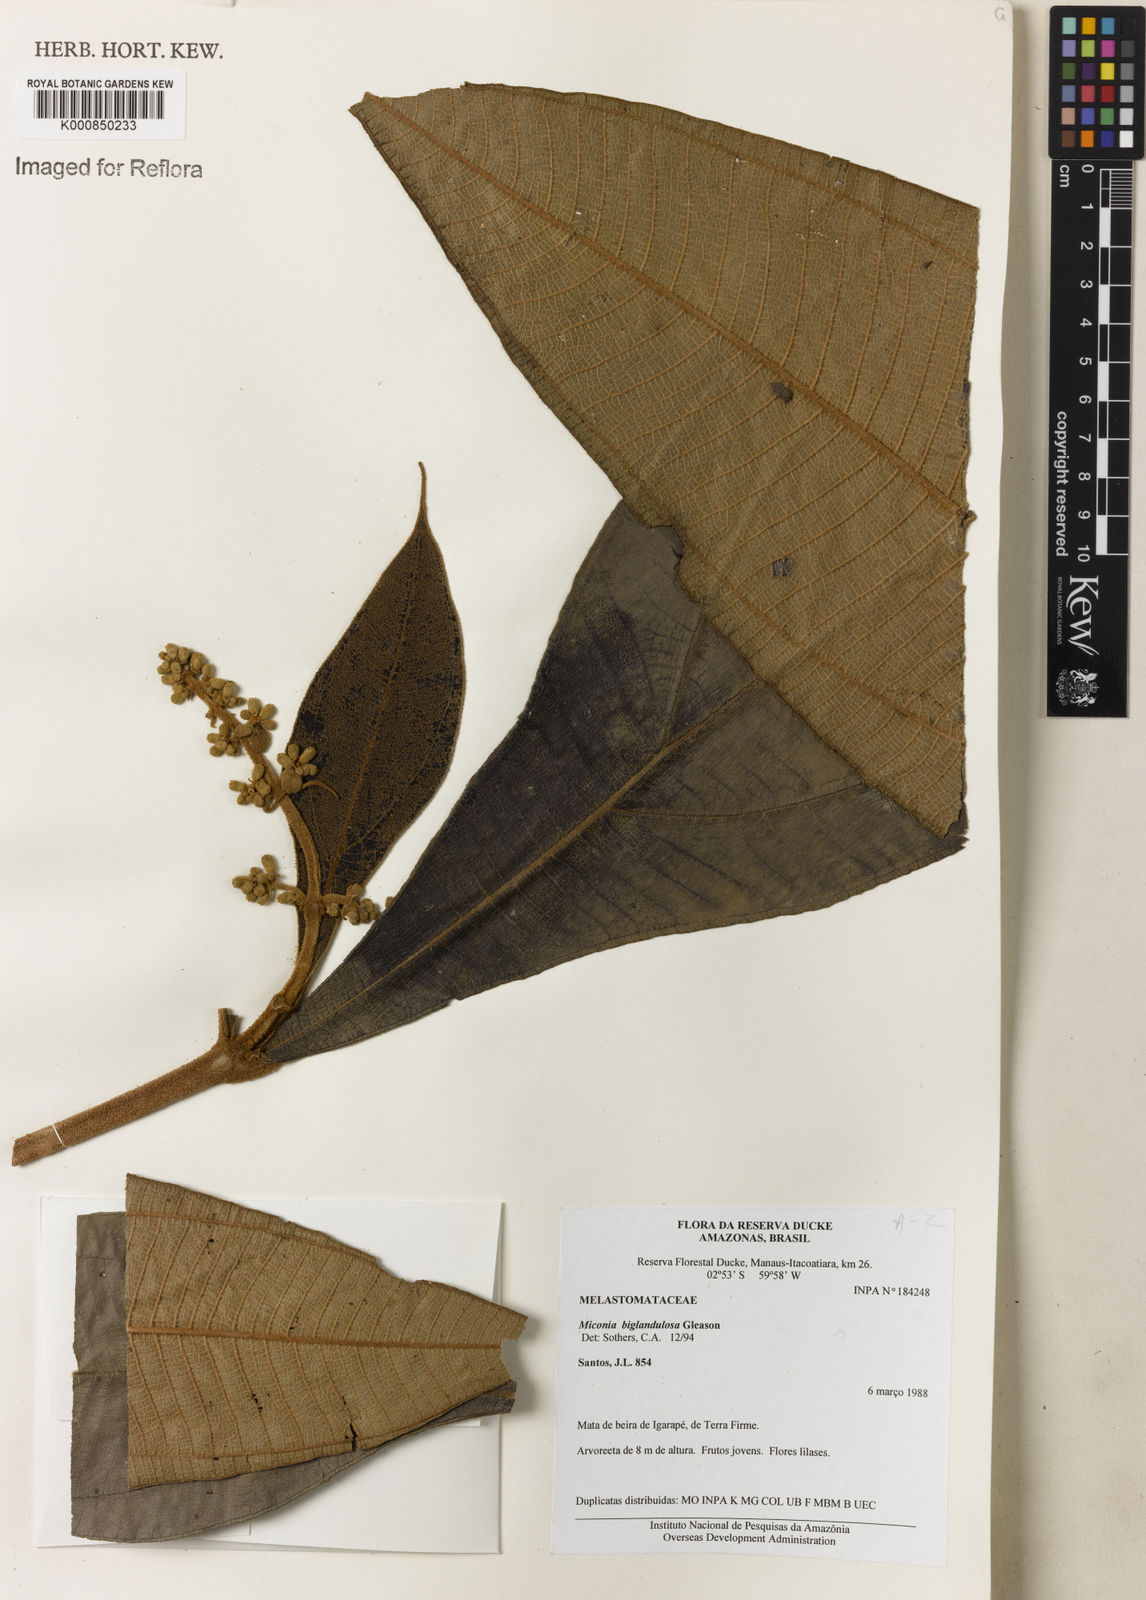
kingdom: Plantae
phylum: Tracheophyta
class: Magnoliopsida
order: Myrtales
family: Melastomataceae
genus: Miconia
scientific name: Miconia biglandulosa
